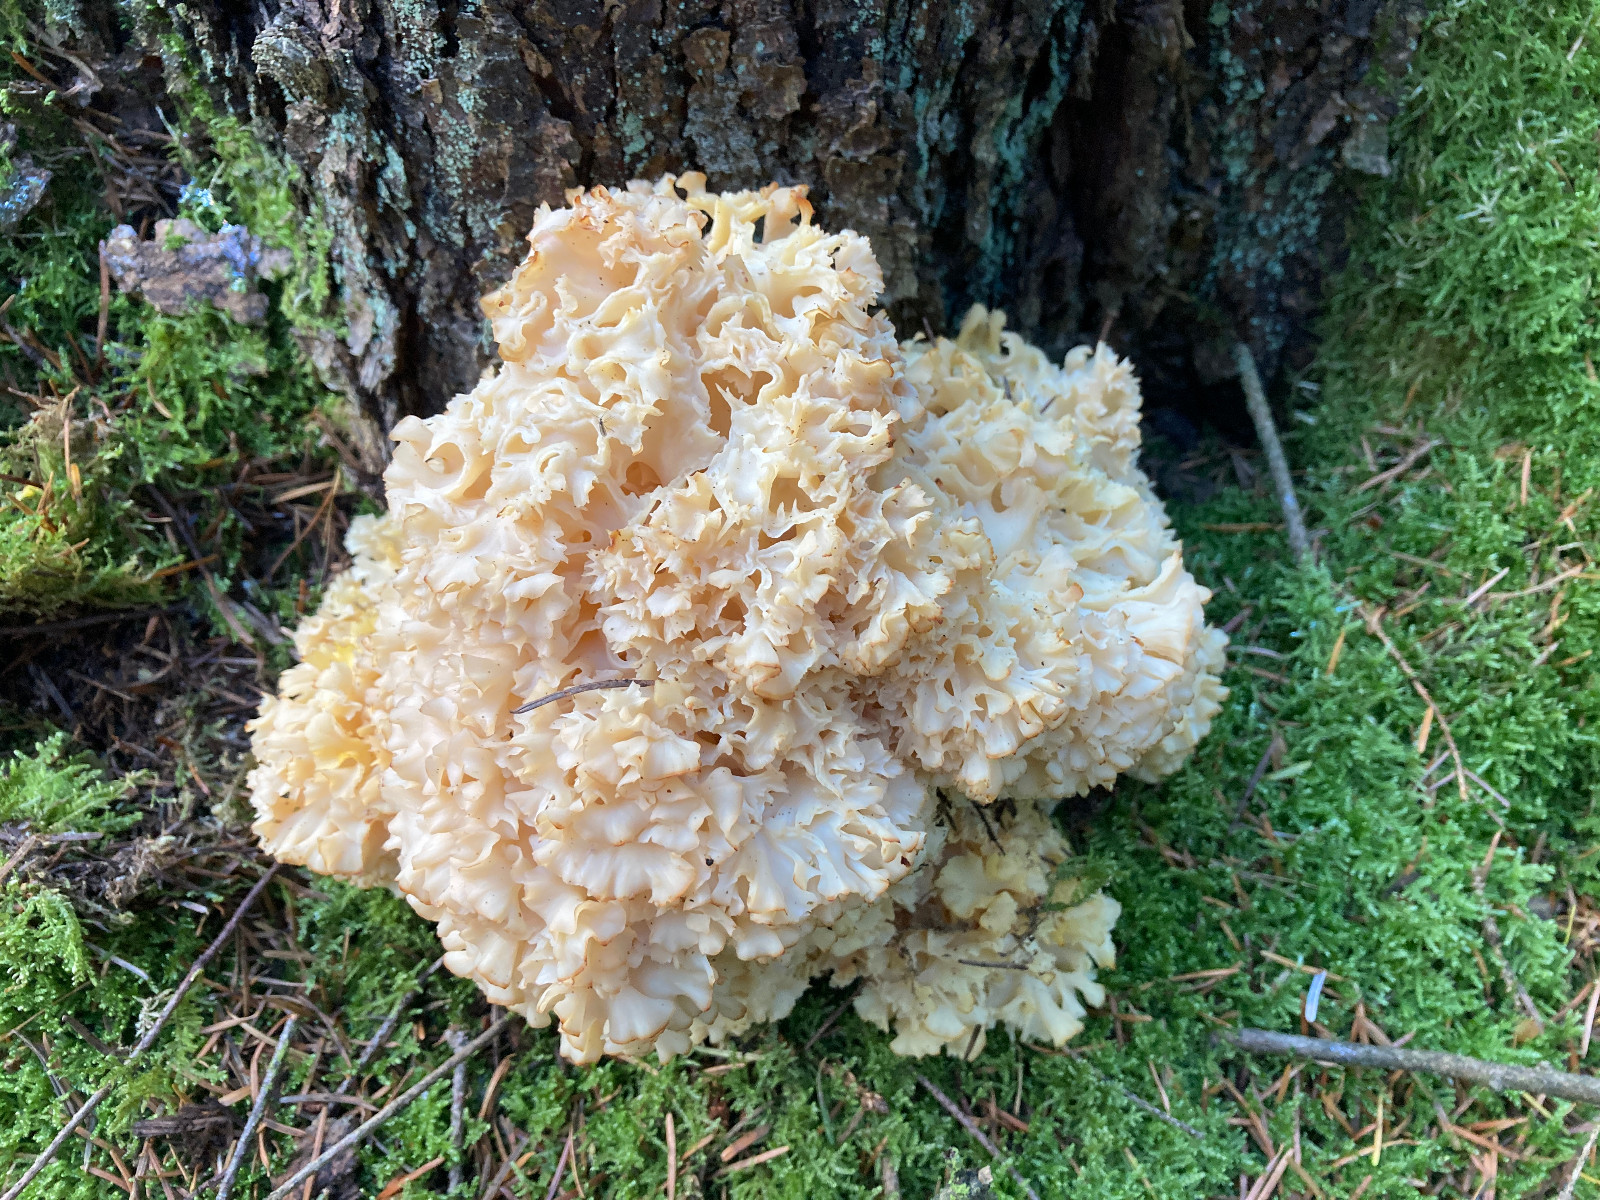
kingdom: Fungi
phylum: Basidiomycota
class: Agaricomycetes
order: Polyporales
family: Sparassidaceae
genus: Sparassis
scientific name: Sparassis crispa
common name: kruset blomkålssvamp
